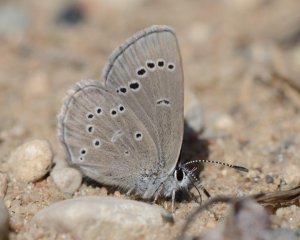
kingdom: Animalia
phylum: Arthropoda
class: Insecta
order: Lepidoptera
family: Lycaenidae
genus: Glaucopsyche
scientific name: Glaucopsyche lygdamus
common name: Silvery Blue
